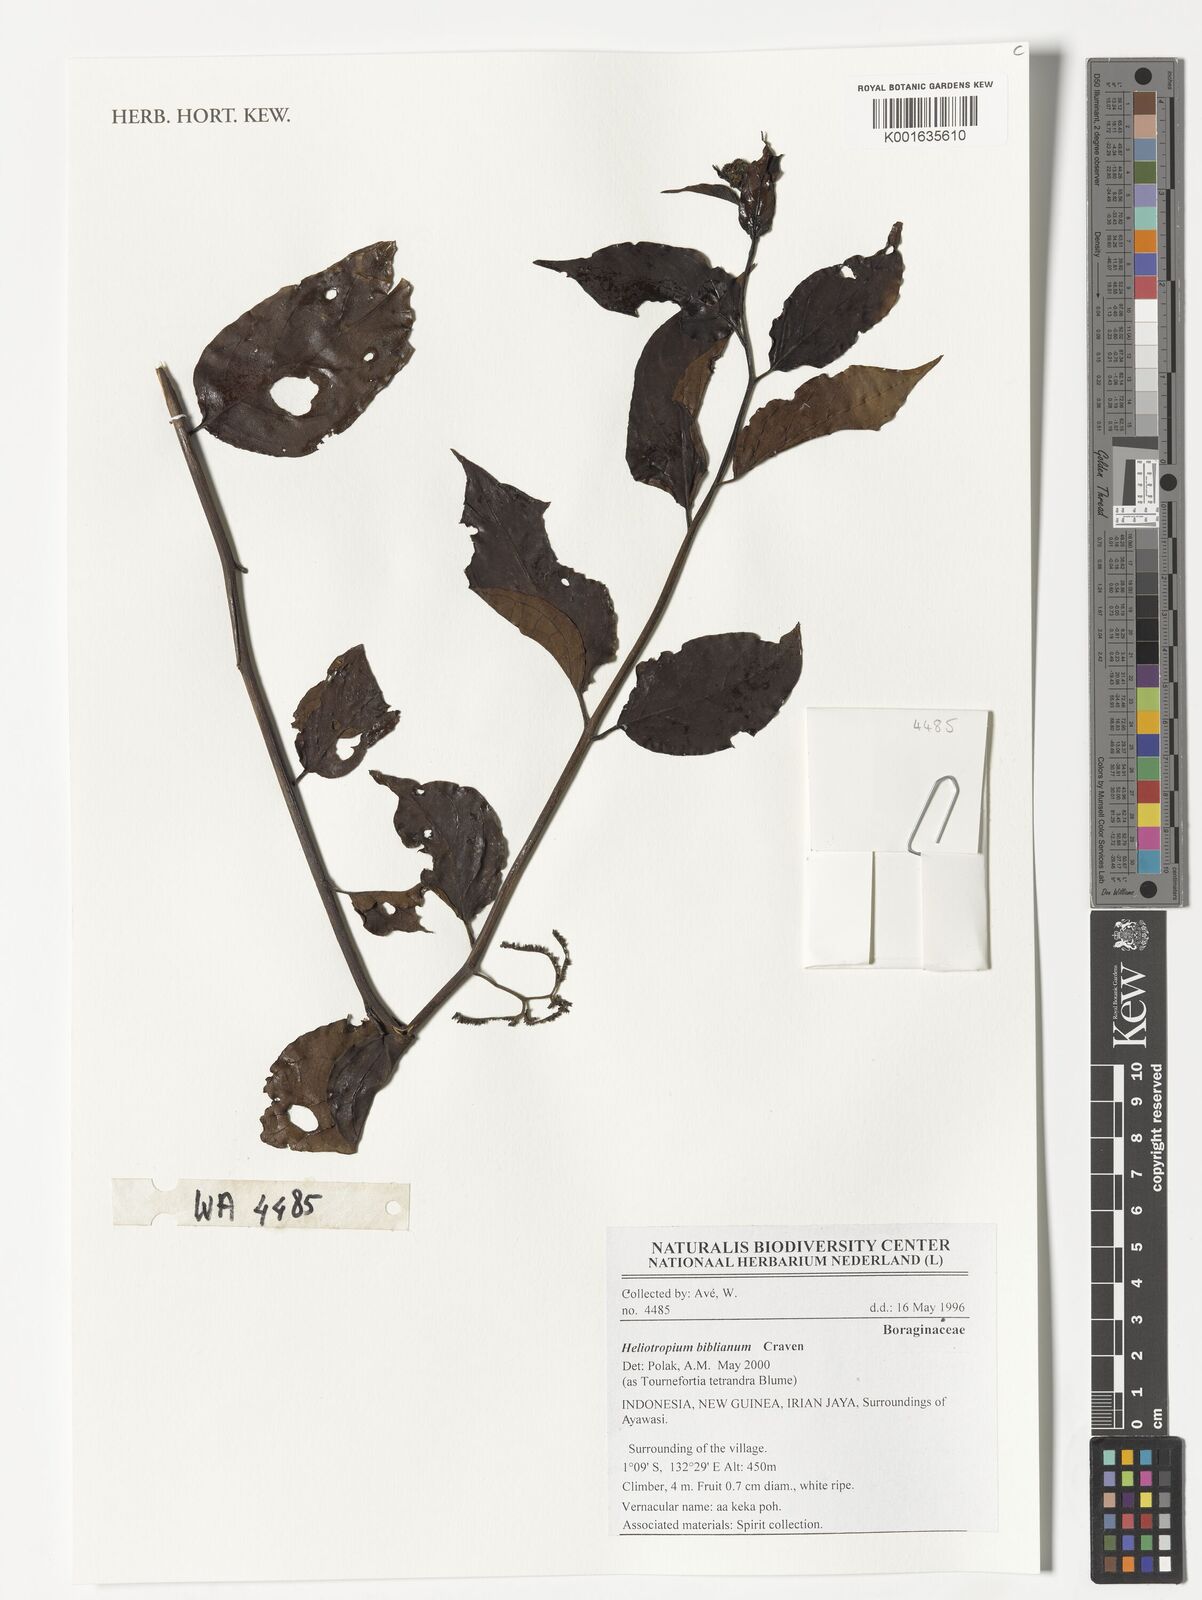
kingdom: Plantae
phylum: Tracheophyta
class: Magnoliopsida
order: Boraginales
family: Heliotropiaceae
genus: Heliotropium
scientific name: Heliotropium biblianum
